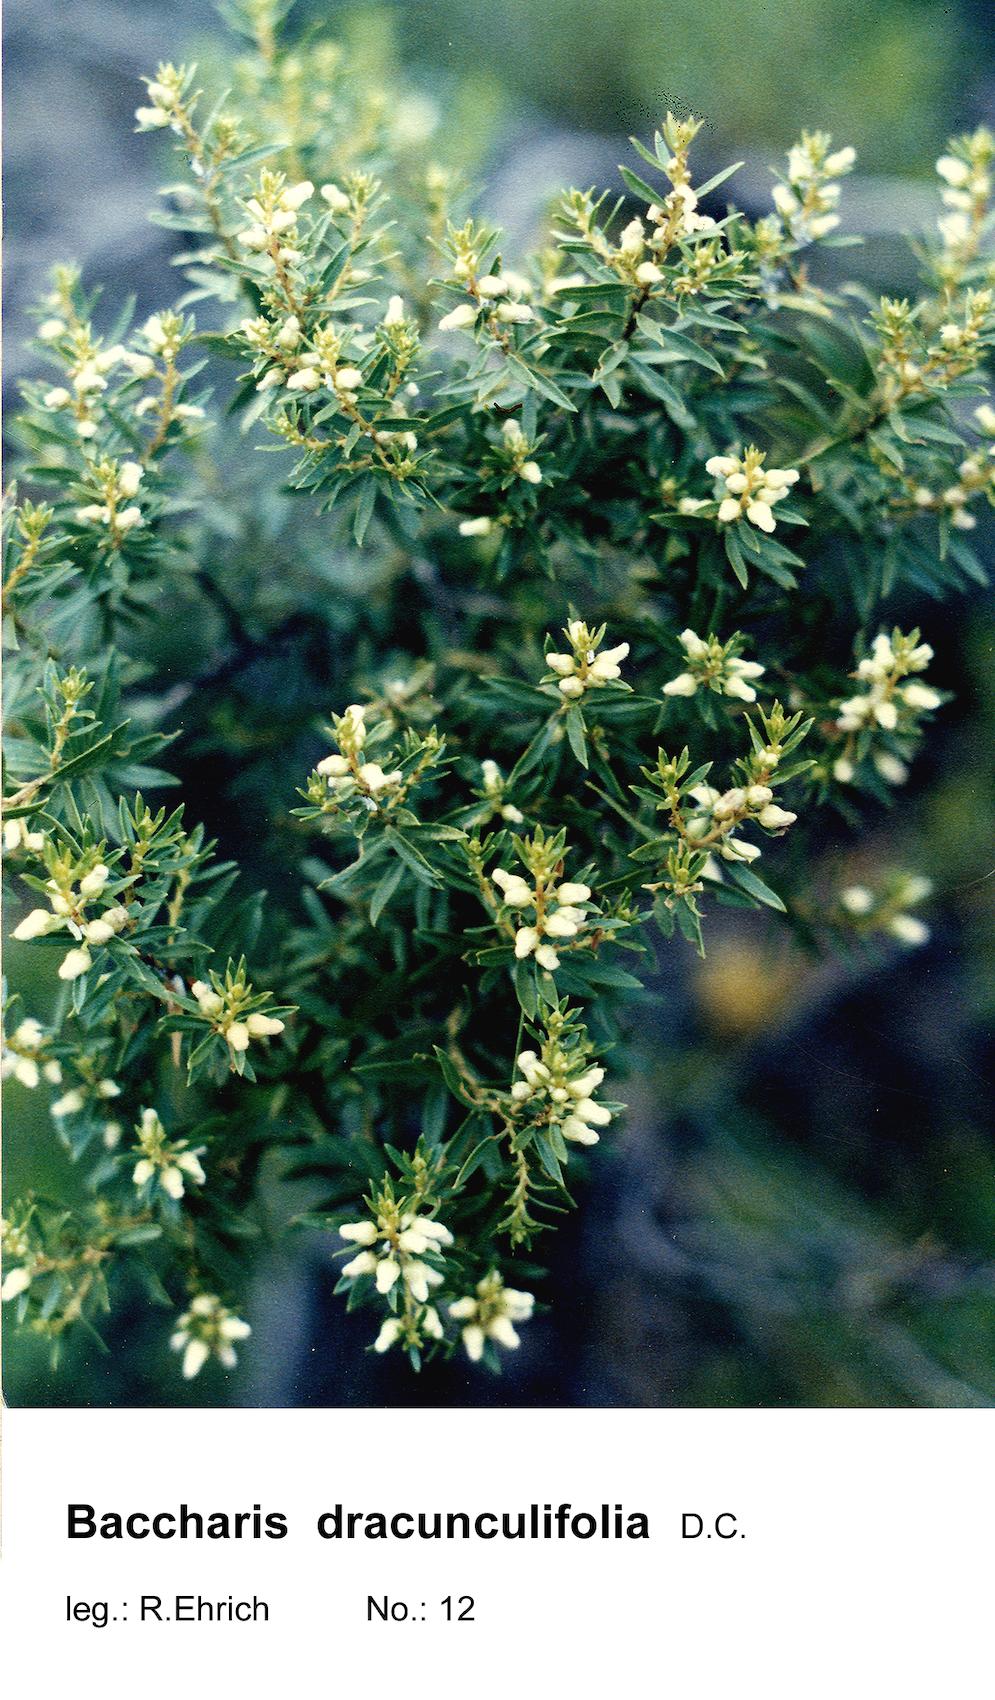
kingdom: Plantae
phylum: Tracheophyta
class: Magnoliopsida
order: Asterales
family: Asteraceae
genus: Baccharis
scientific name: Baccharis dracunculifolia
